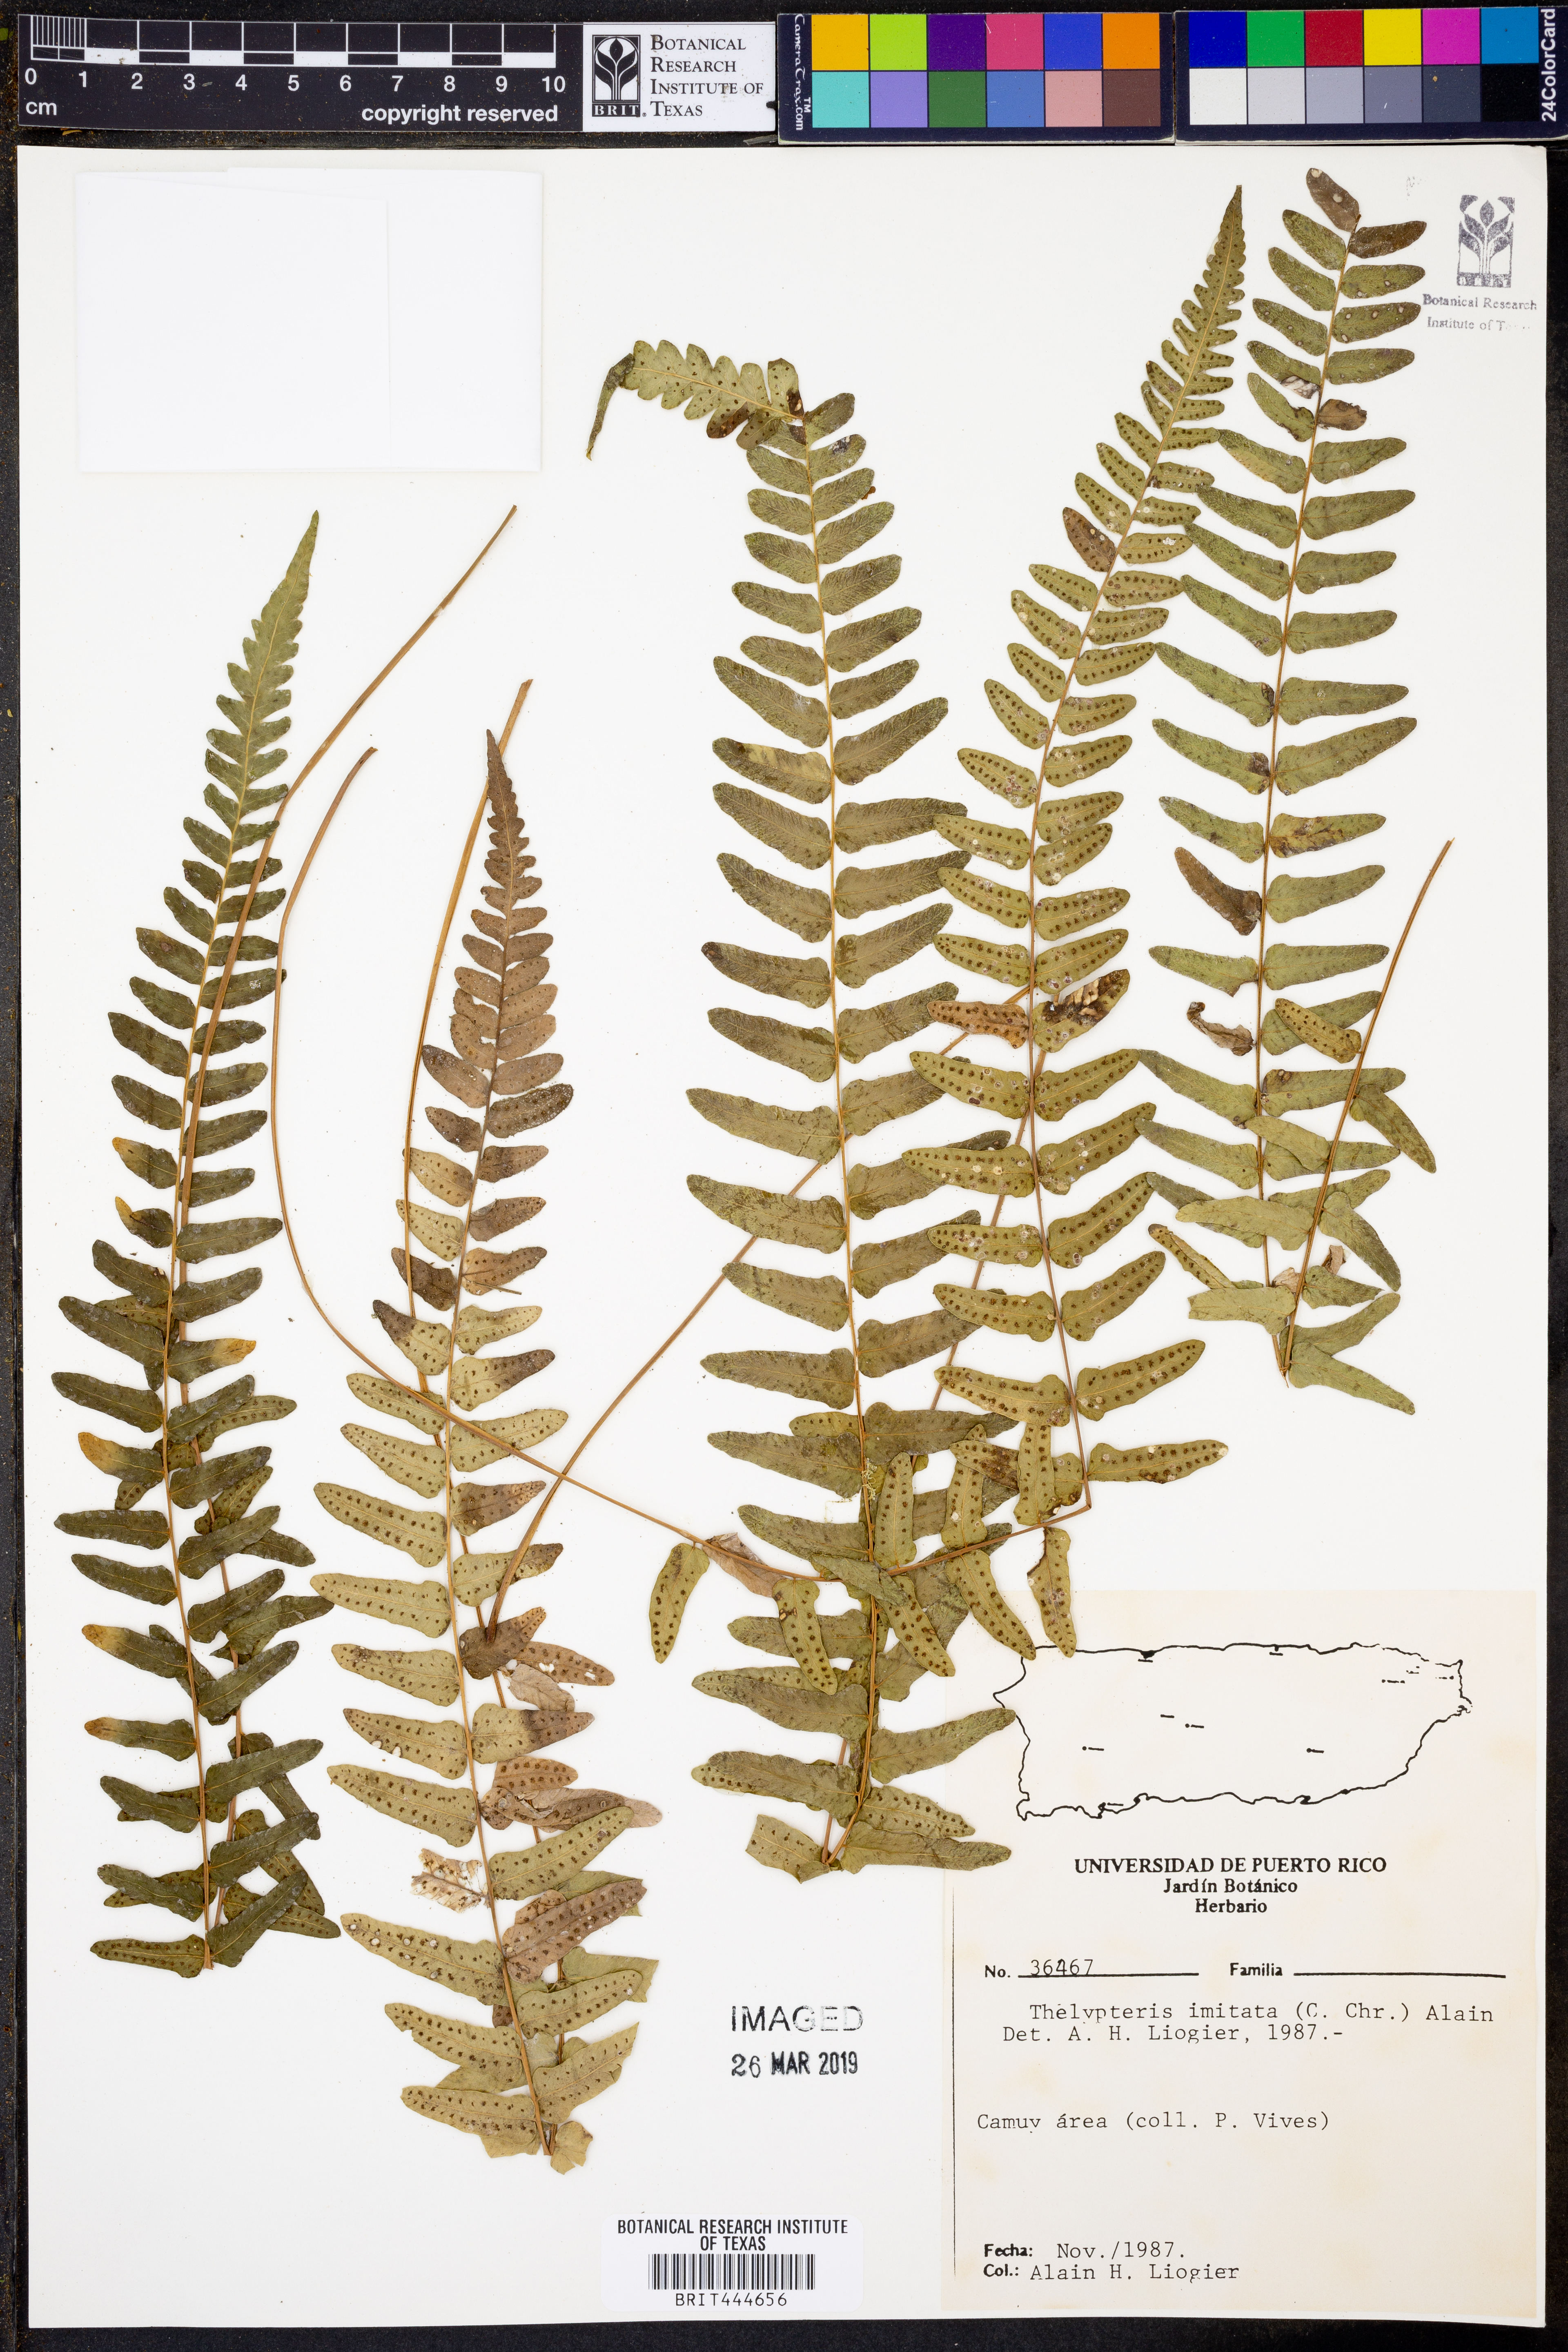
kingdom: Plantae
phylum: Tracheophyta
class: Polypodiopsida
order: Polypodiales
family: Thelypteridaceae
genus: Goniopteris
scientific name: Goniopteris imitata
